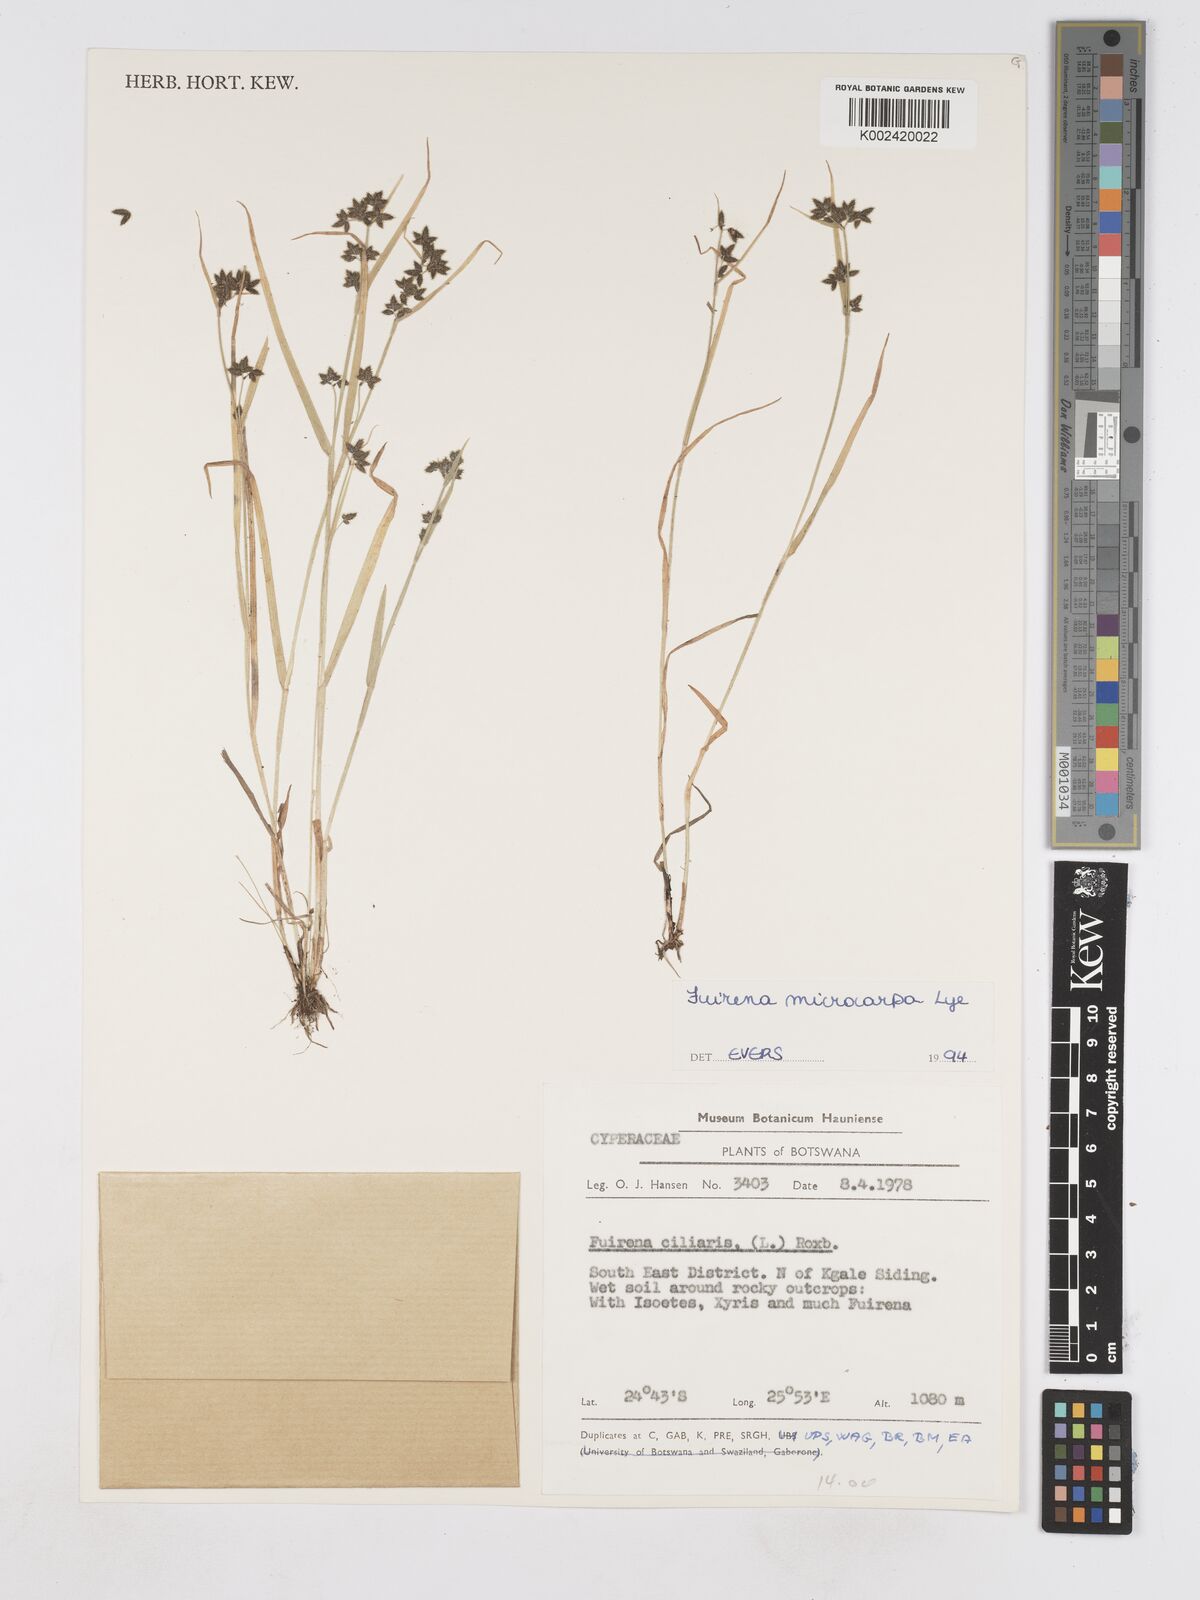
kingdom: Plantae
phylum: Tracheophyta
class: Liliopsida
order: Poales
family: Cyperaceae
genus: Fuirena
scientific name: Fuirena microcarpa
